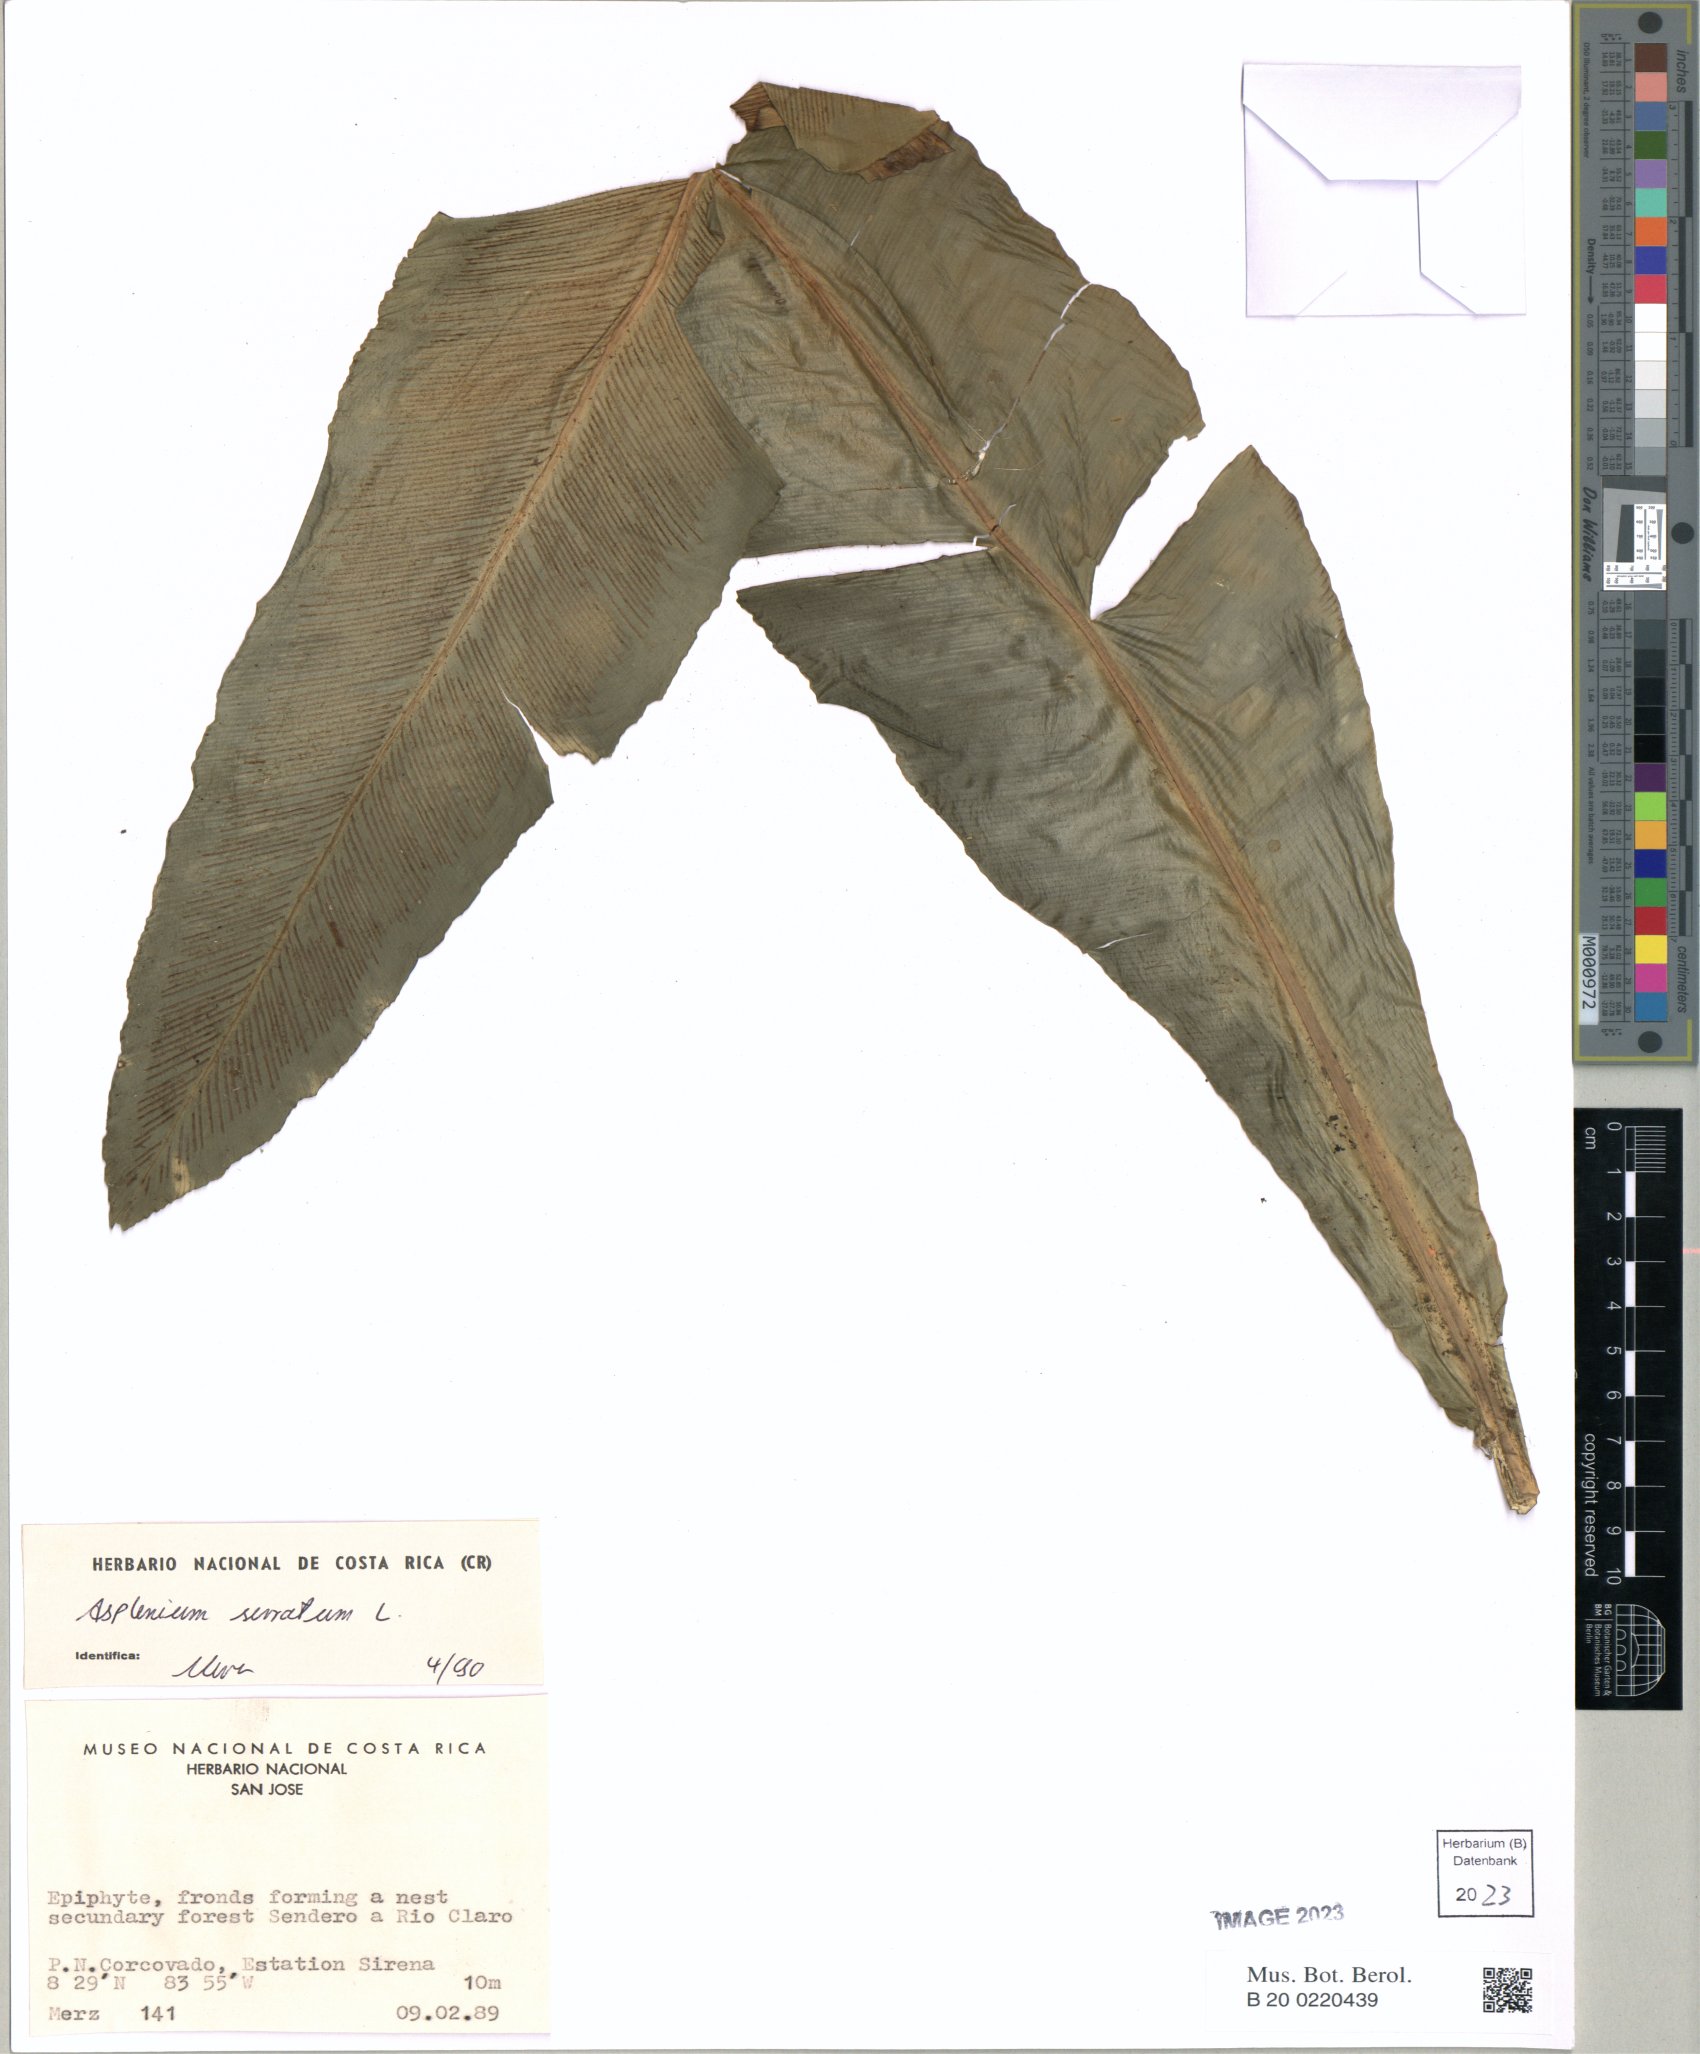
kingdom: Plantae
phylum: Tracheophyta
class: Polypodiopsida
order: Polypodiales
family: Aspleniaceae
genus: Asplenium
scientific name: Asplenium serratum
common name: Wild birdnest fern
